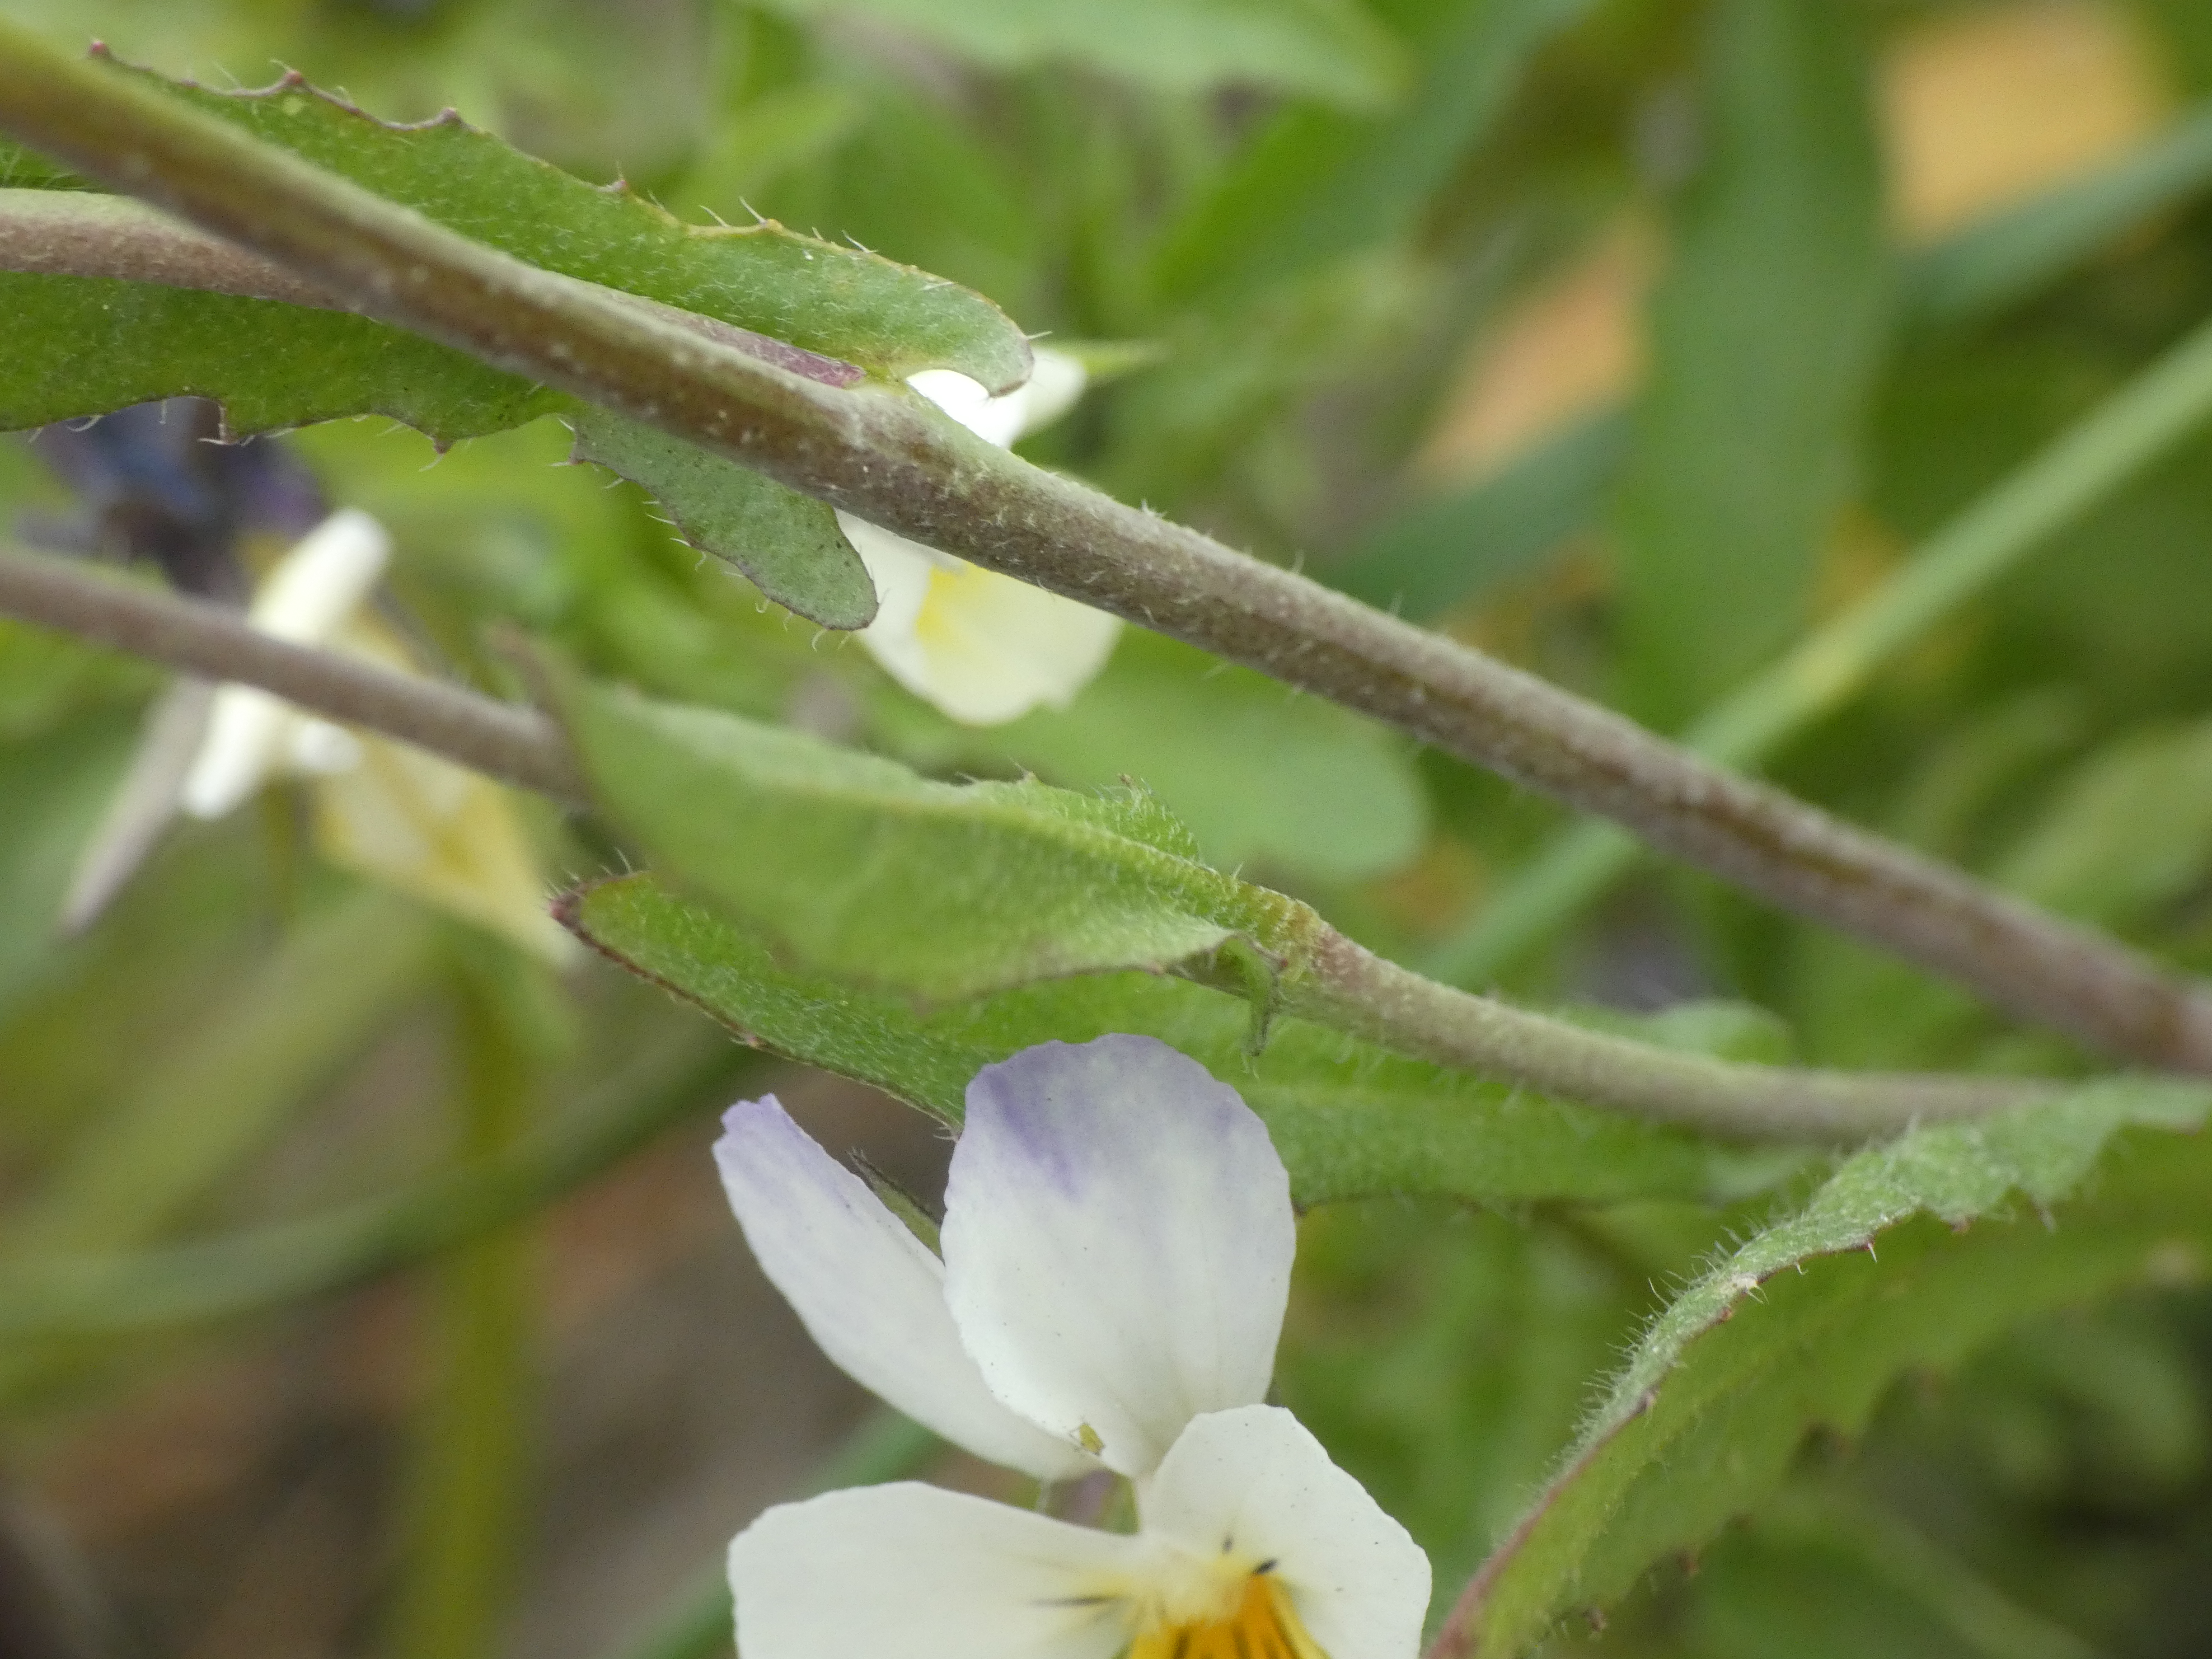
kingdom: Plantae
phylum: Tracheophyta
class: Magnoliopsida
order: Brassicales
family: Brassicaceae
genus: Capsella
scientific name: Capsella bursa-pastoris
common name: Hyrdetaske
